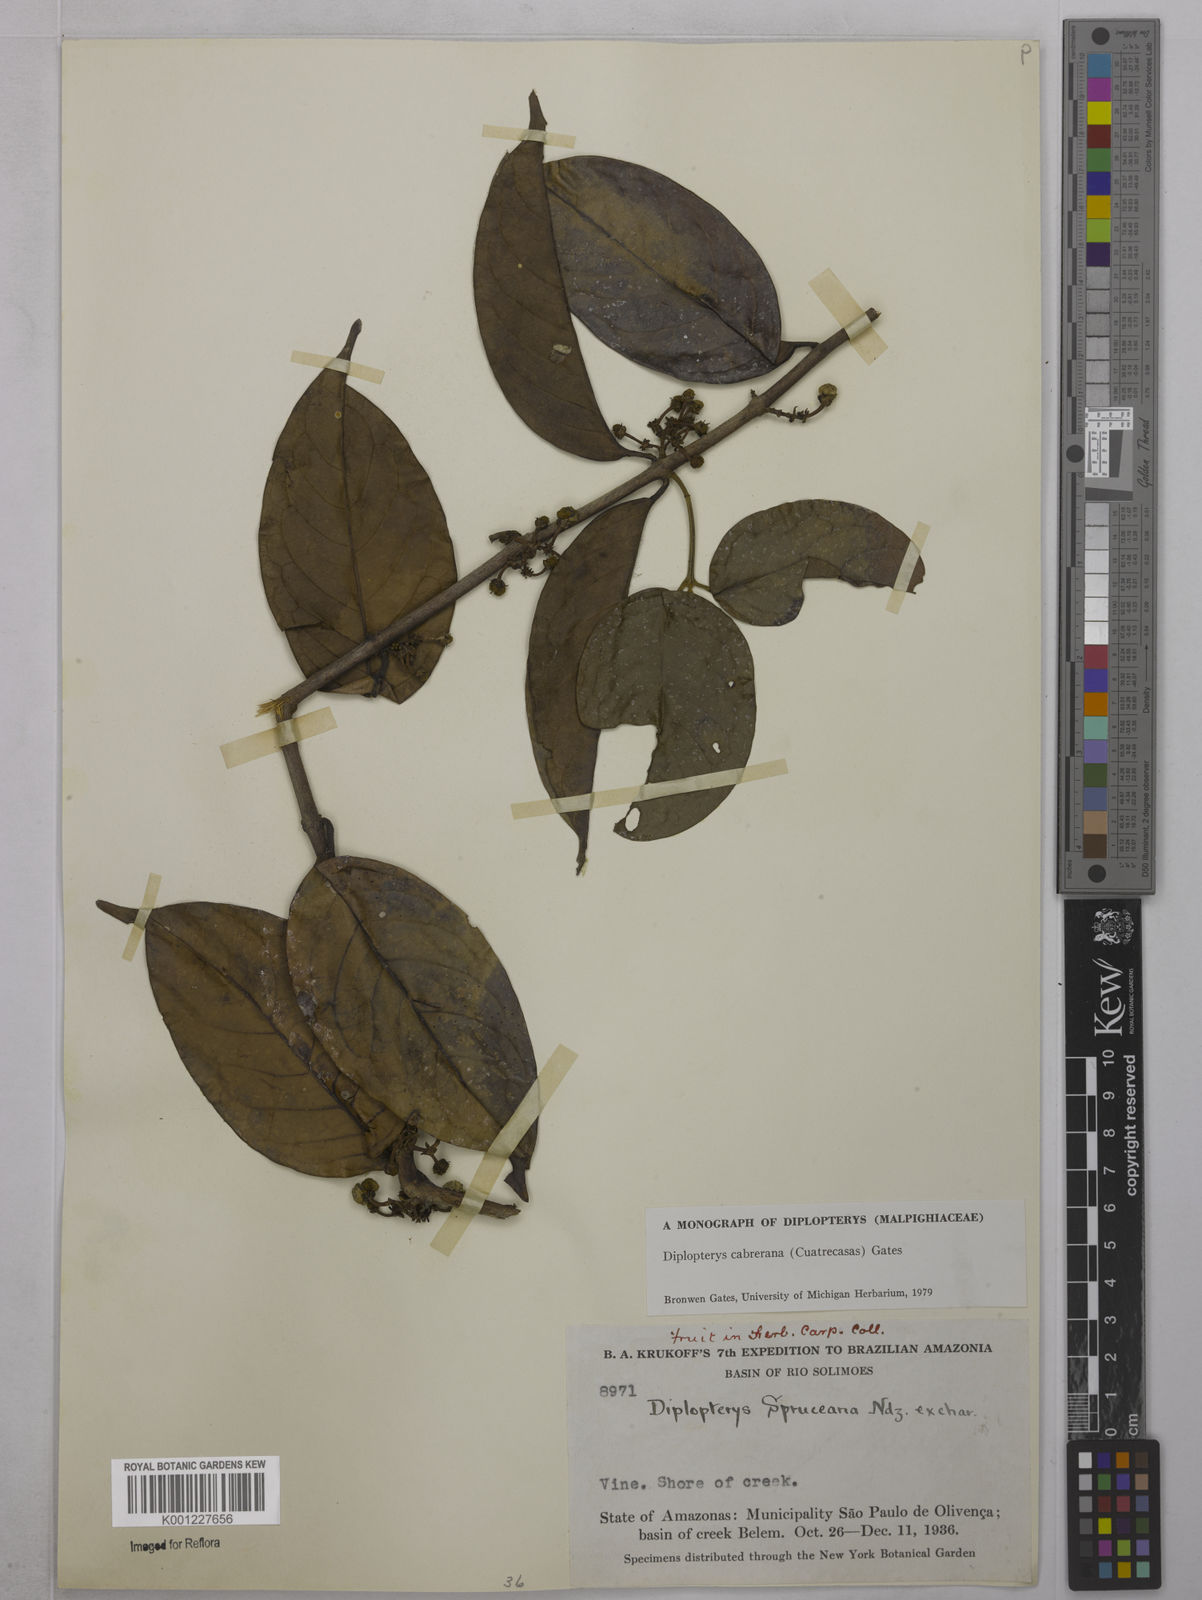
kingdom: Plantae
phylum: Tracheophyta
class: Magnoliopsida
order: Malpighiales
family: Malpighiaceae
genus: Diplopterys
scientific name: Diplopterys cabrerana
